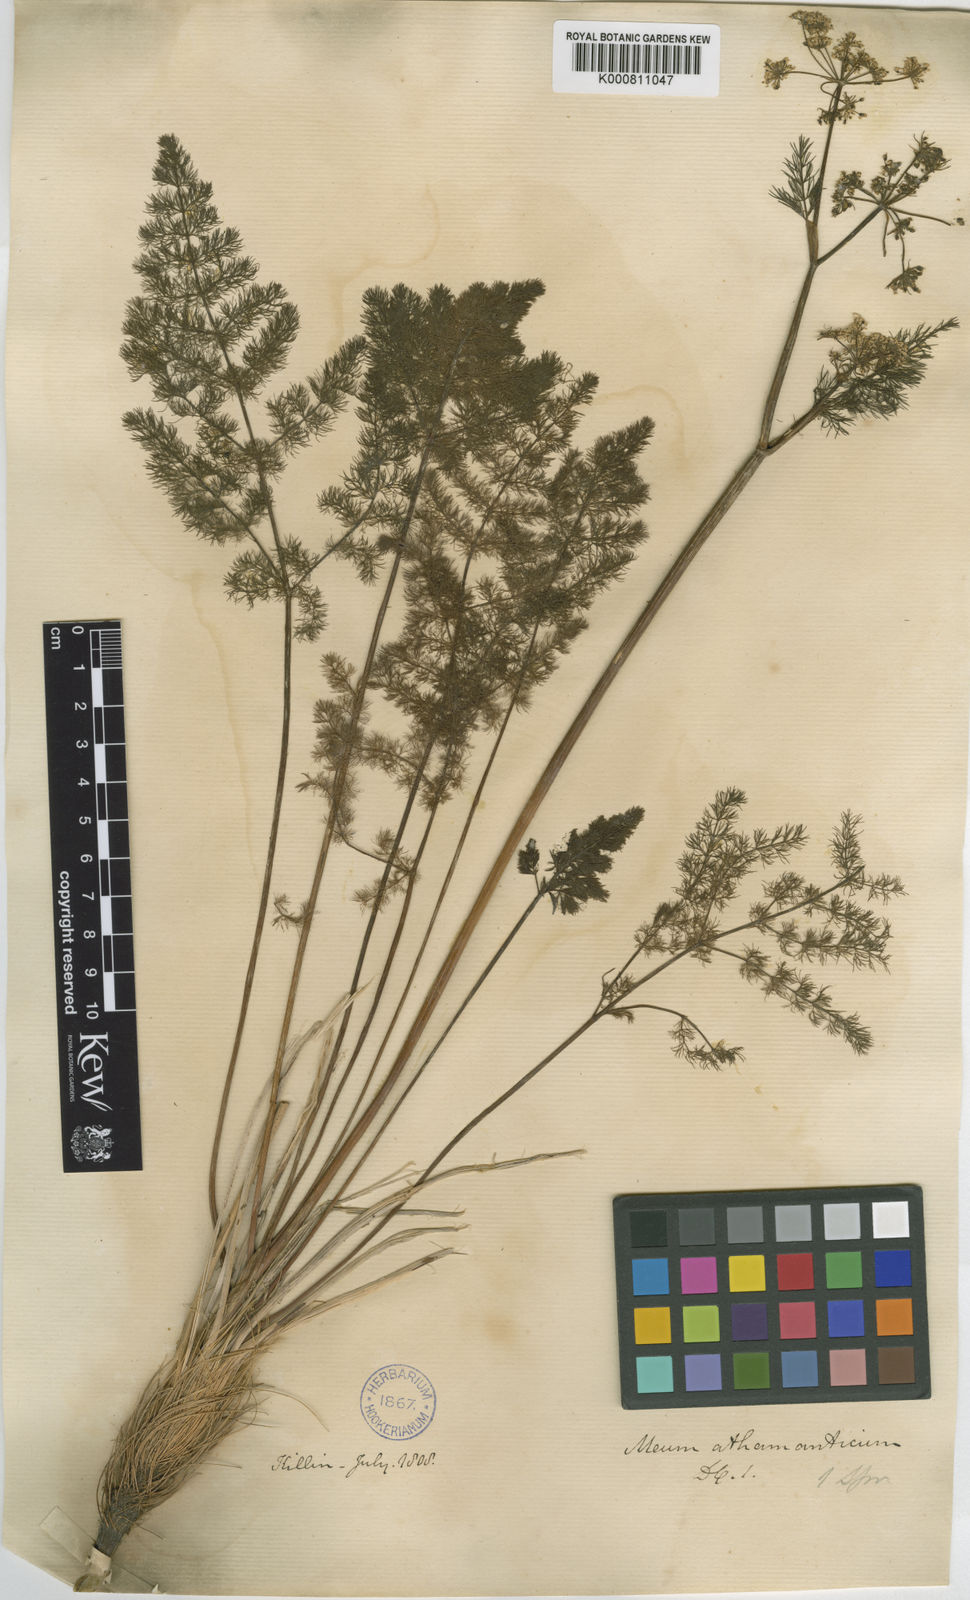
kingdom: Plantae
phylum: Tracheophyta
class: Magnoliopsida
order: Apiales
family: Apiaceae
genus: Meum
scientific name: Meum athamanticum
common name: Spignel
